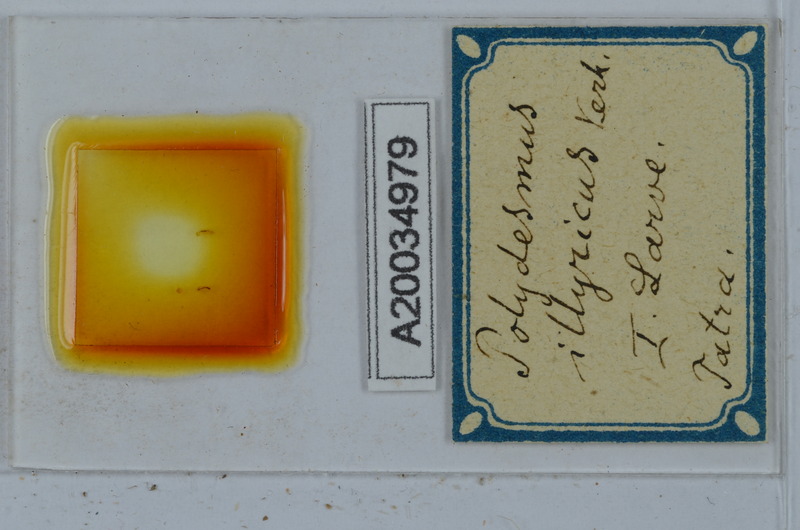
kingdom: Animalia
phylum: Arthropoda
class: Diplopoda
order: Polydesmida
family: Polydesmidae
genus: Polydesmus
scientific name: Polydesmus complanatus
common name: Flat-backed millipede
